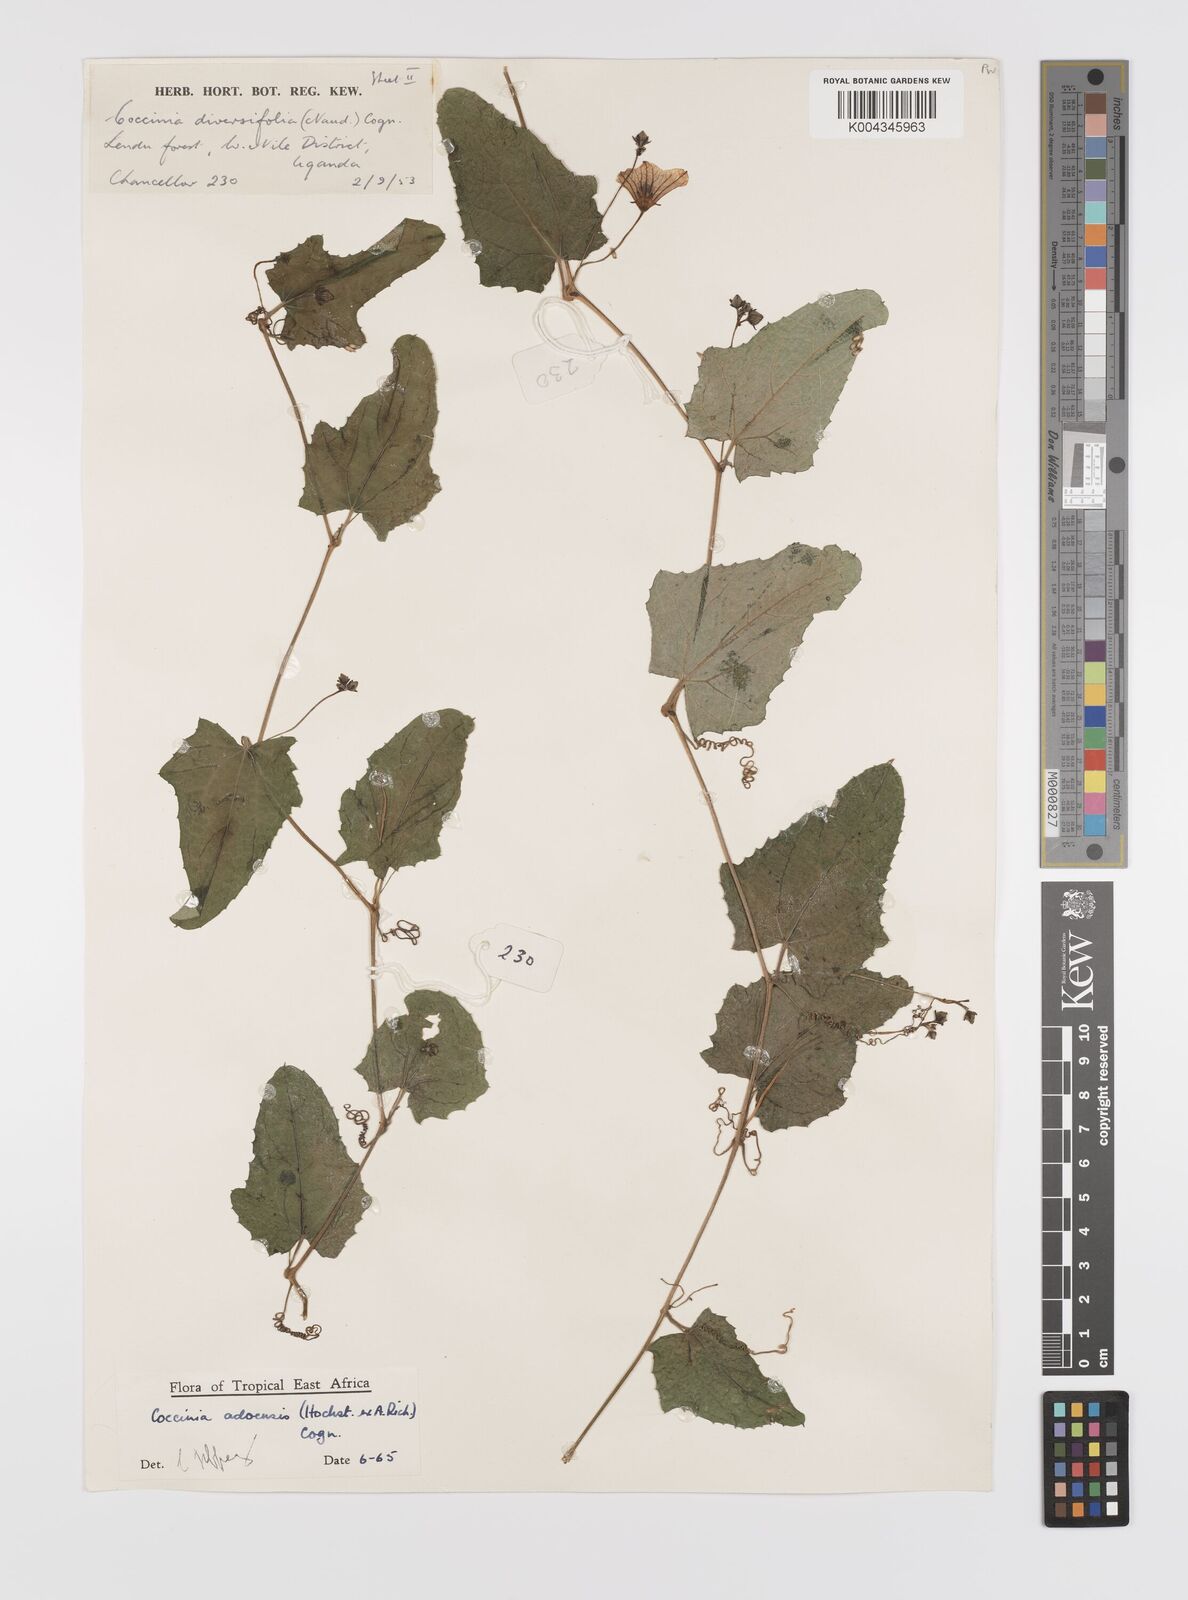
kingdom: Plantae
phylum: Tracheophyta
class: Magnoliopsida
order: Cucurbitales
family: Cucurbitaceae
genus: Coccinia
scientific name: Coccinia adoensis
